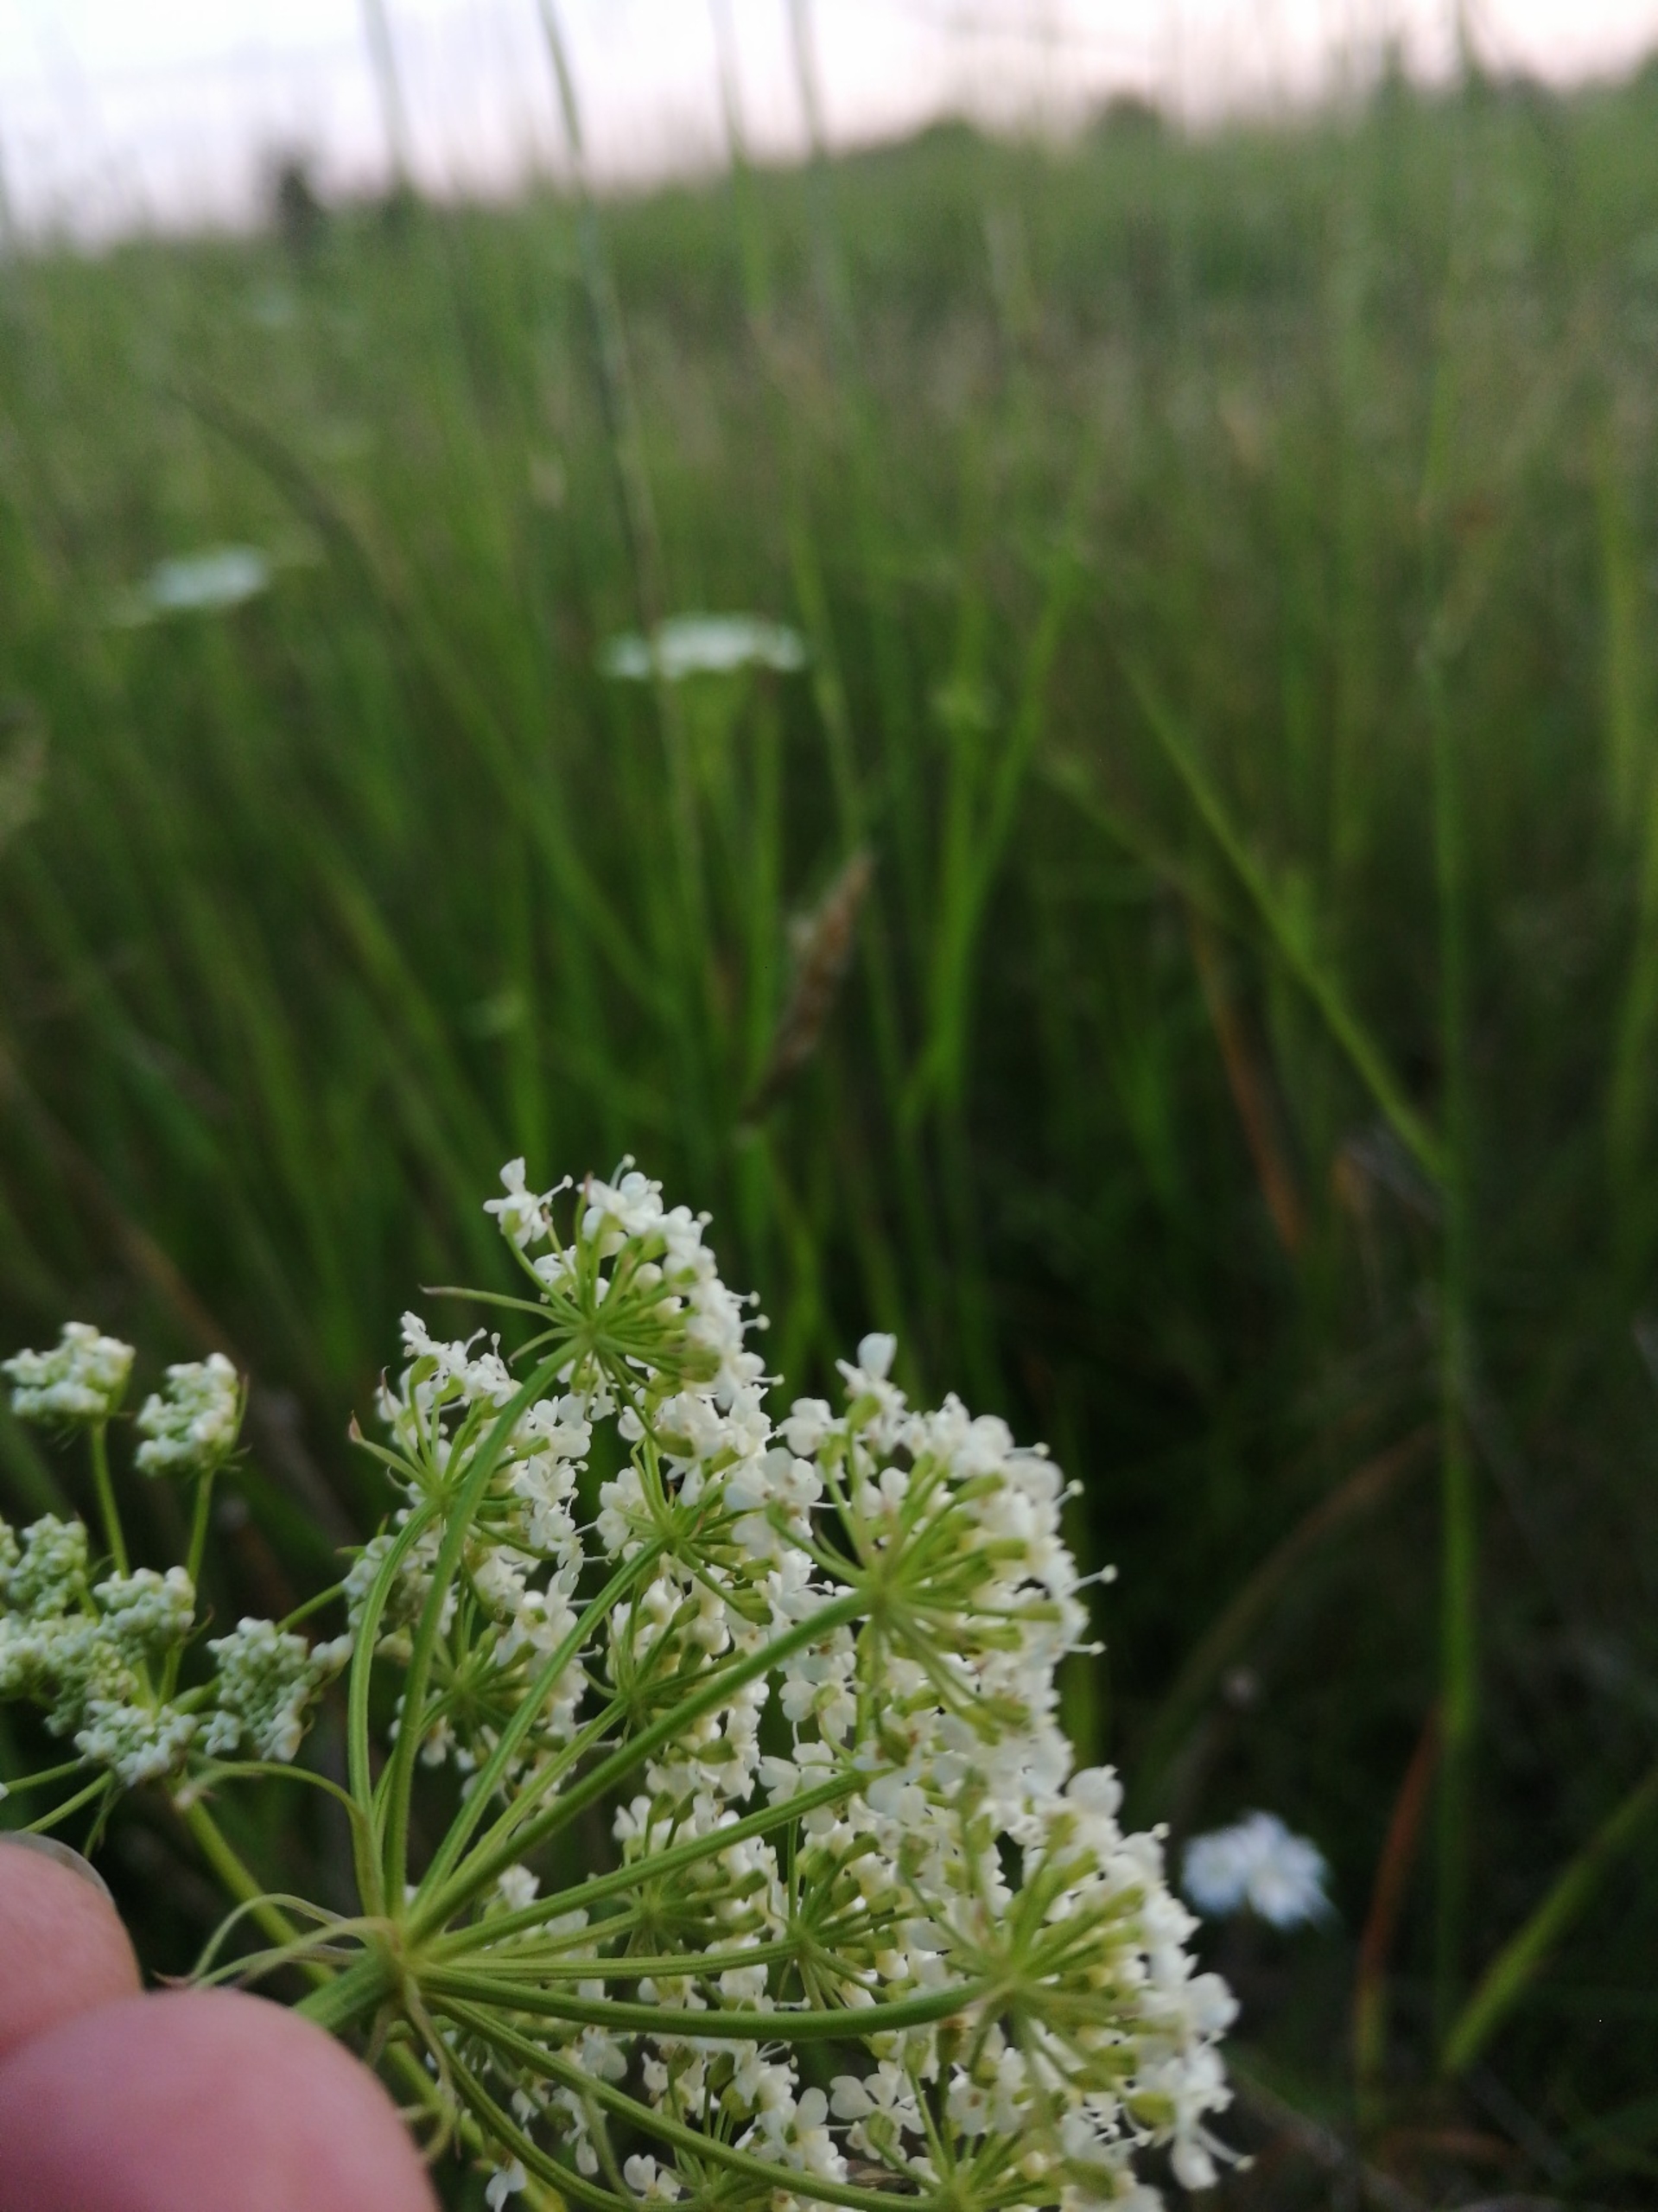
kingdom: Plantae
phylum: Tracheophyta
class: Magnoliopsida
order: Apiales
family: Apiaceae
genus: Bunium
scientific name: Bunium bulbocastanum
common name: Jordkastanie
